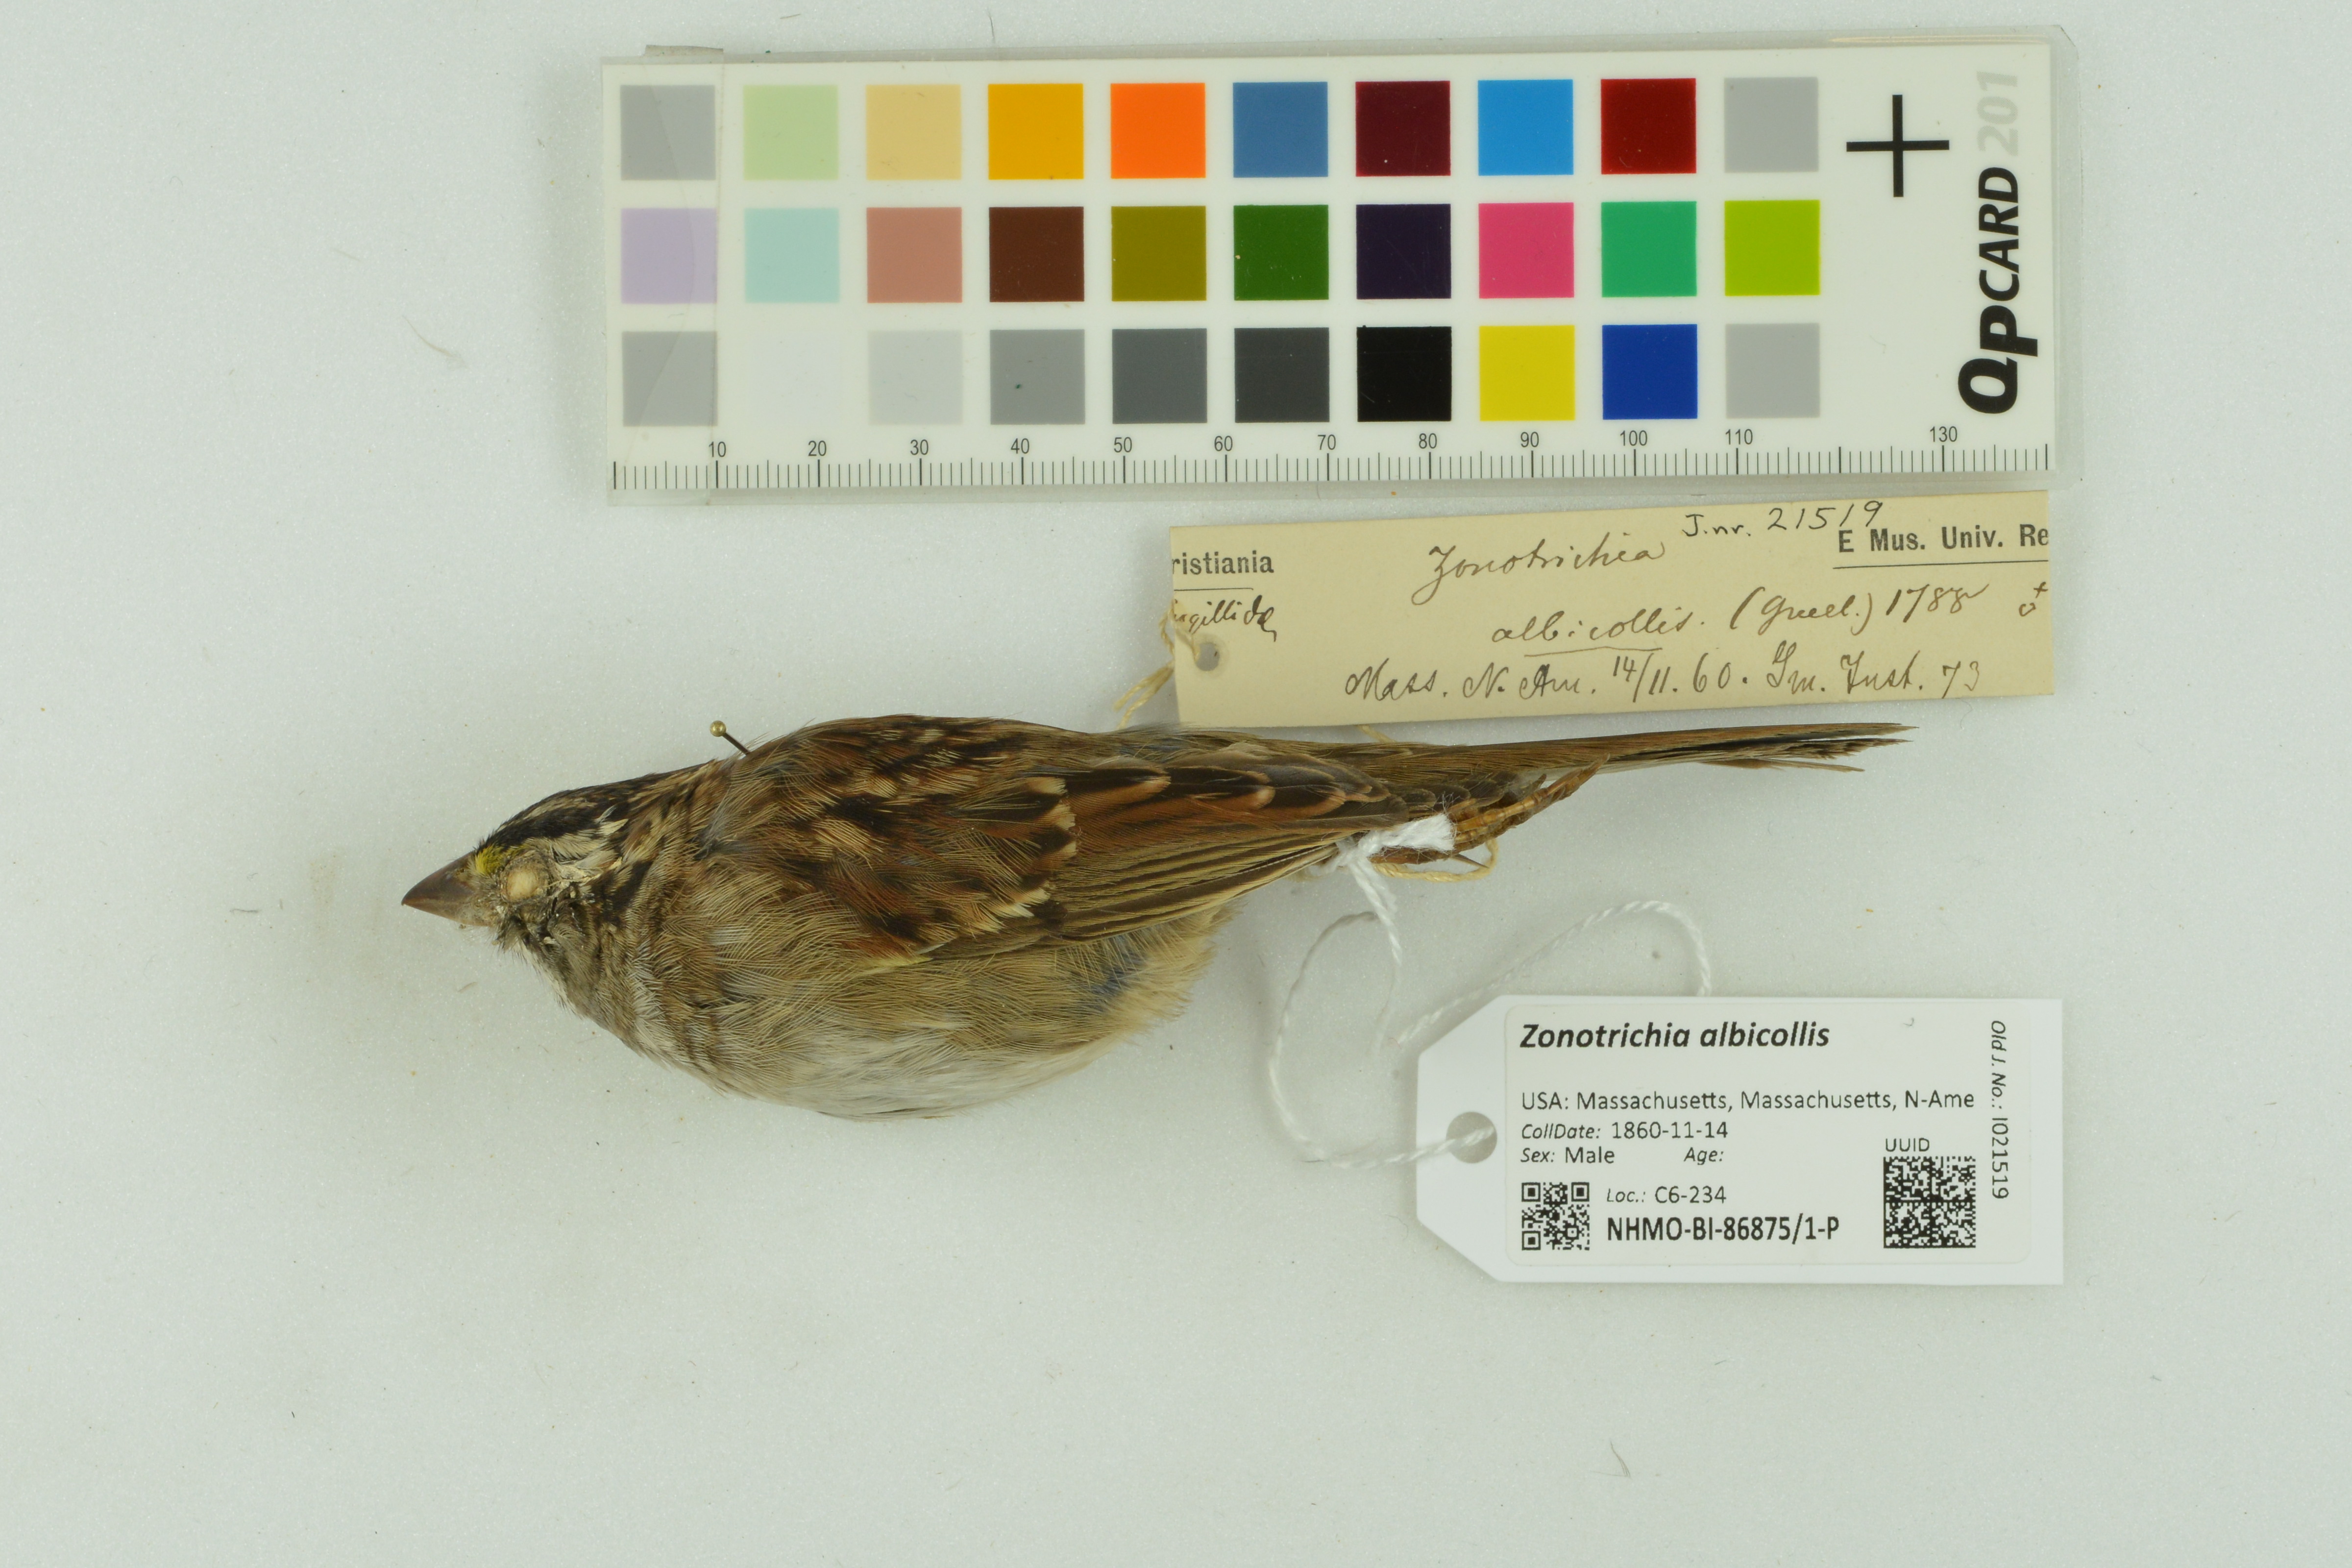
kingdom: Animalia
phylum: Chordata
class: Aves
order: Passeriformes
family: Passerellidae
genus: Zonotrichia
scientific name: Zonotrichia albicollis
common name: White-throated sparrow
